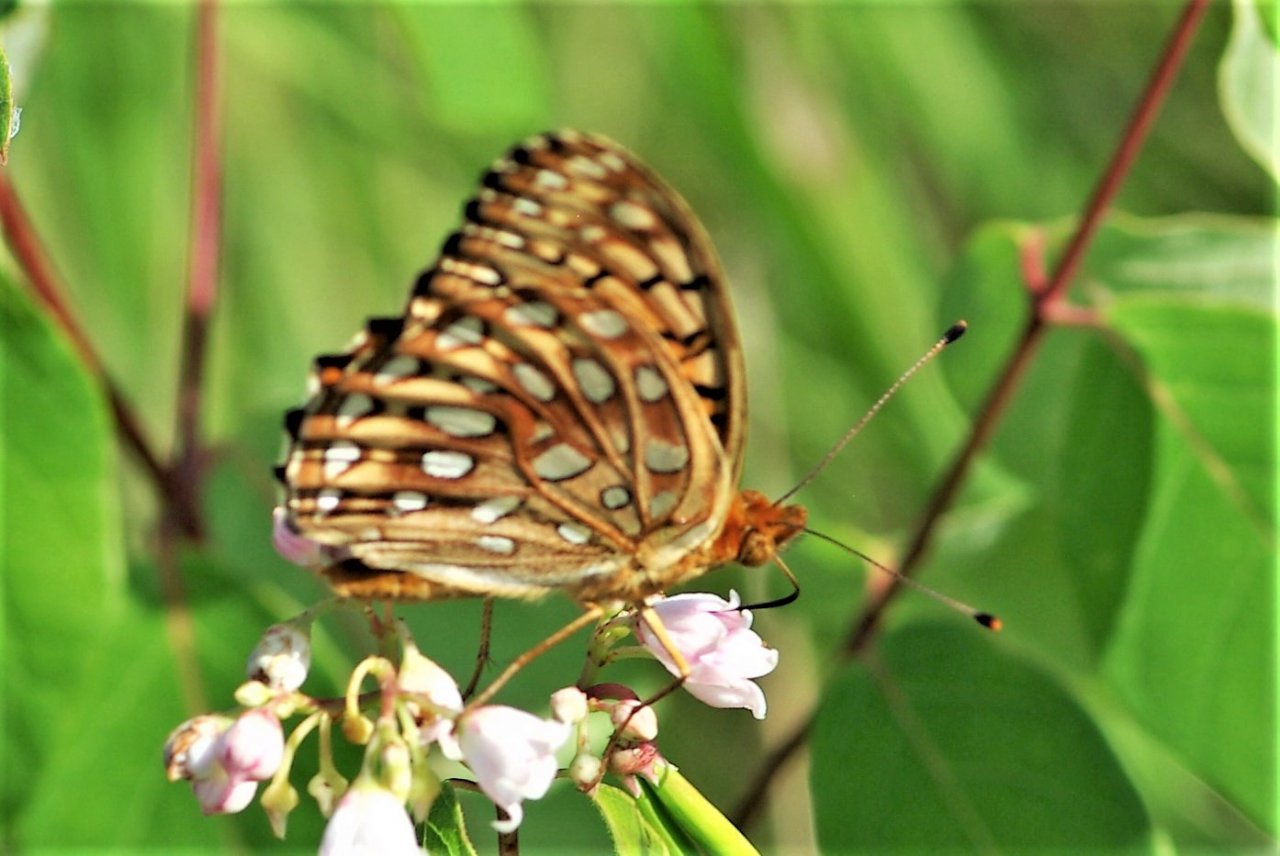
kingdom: Animalia
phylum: Arthropoda
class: Insecta
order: Lepidoptera
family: Nymphalidae
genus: Speyeria
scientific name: Speyeria aphrodite
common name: Aphrodite Fritillary
